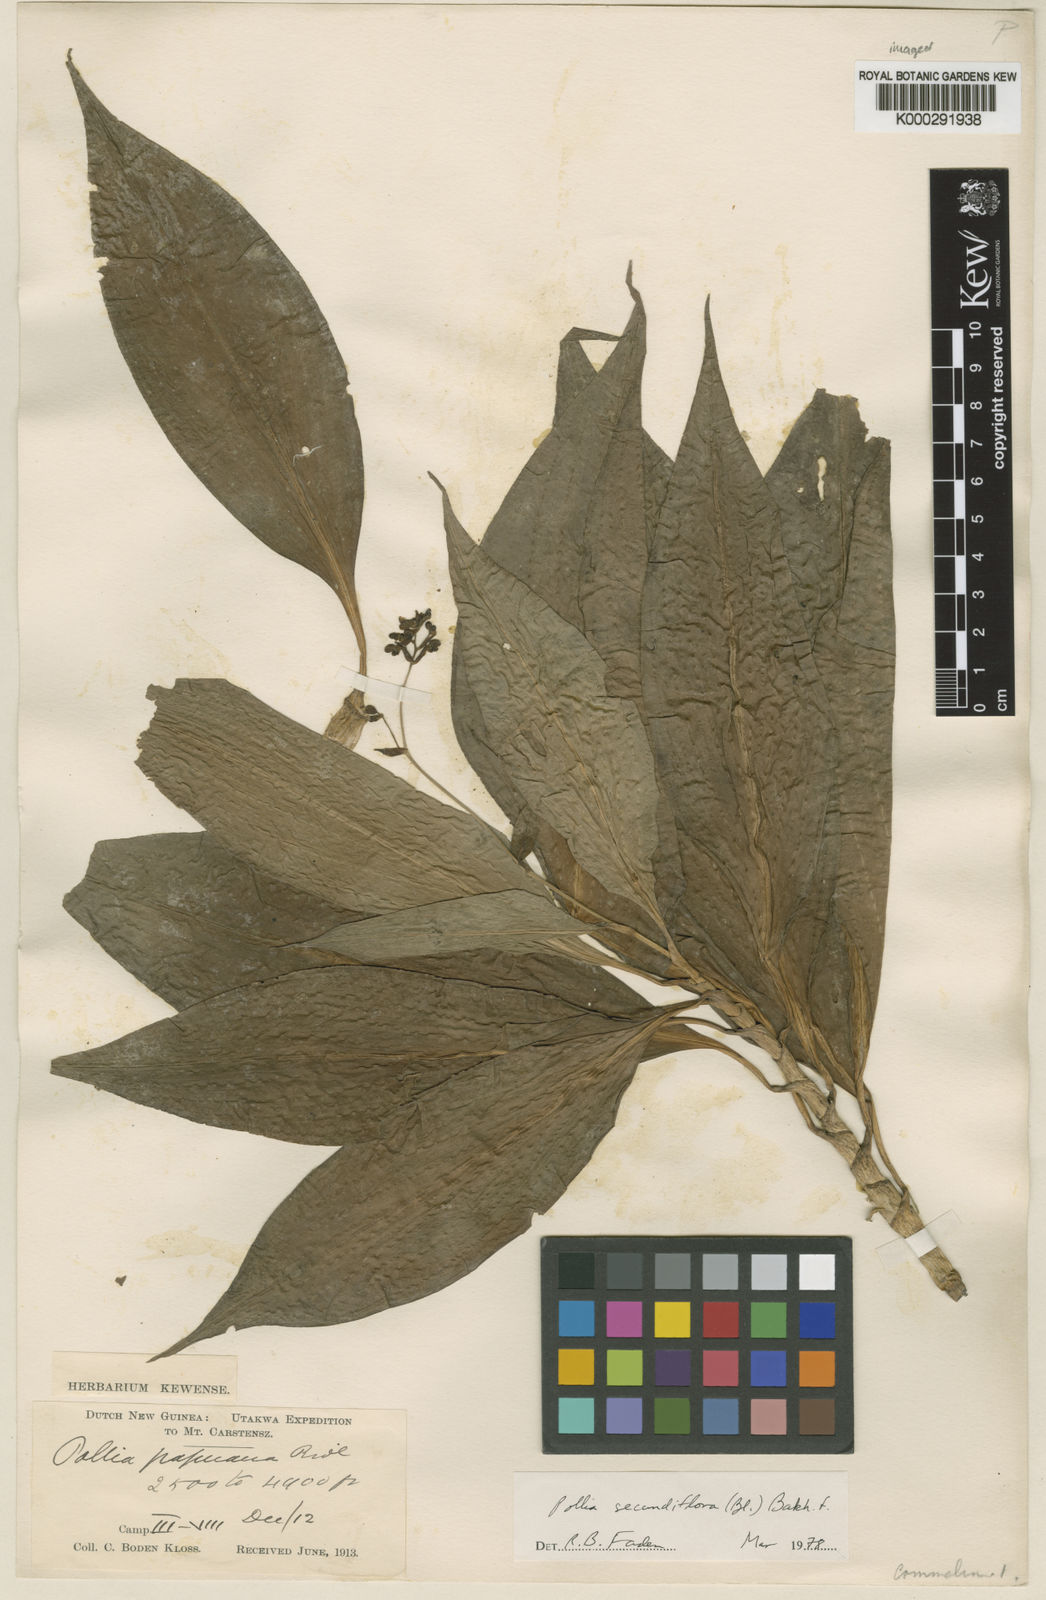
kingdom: Plantae
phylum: Tracheophyta
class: Liliopsida
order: Commelinales
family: Commelinaceae
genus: Pollia
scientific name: Pollia secundiflora
